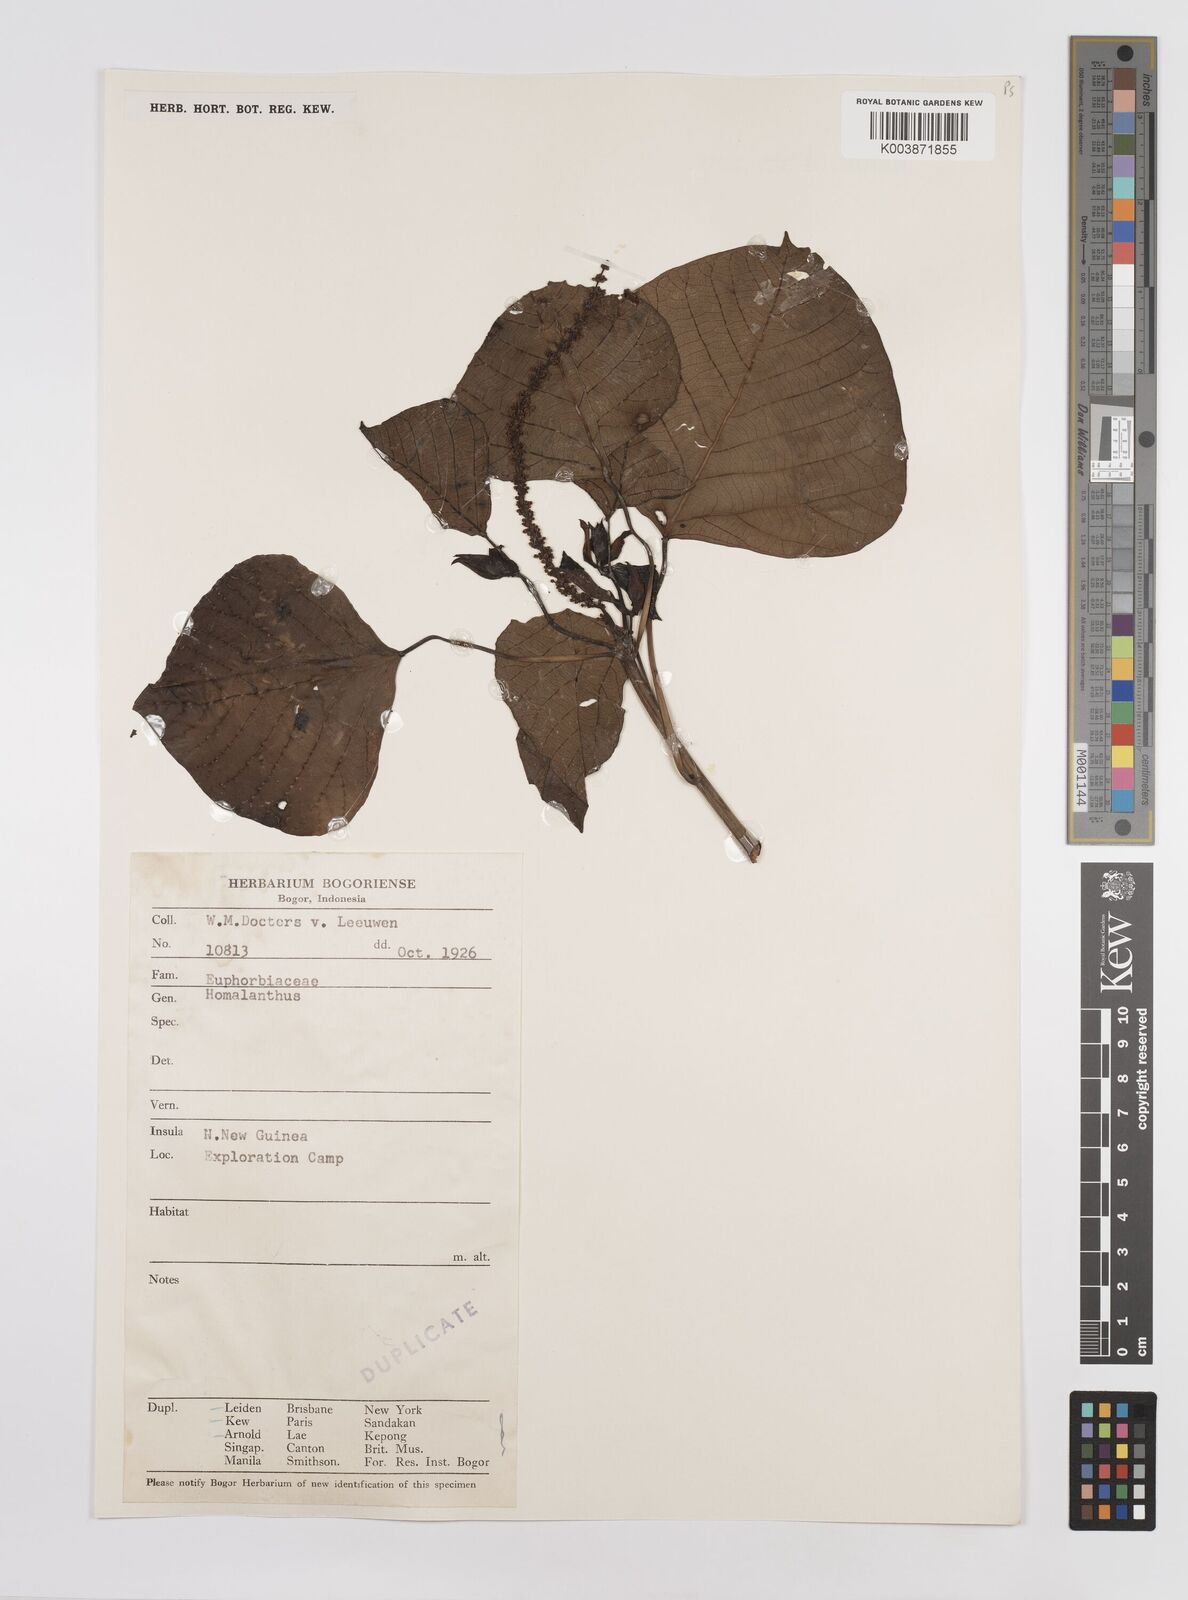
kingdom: Plantae
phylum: Tracheophyta
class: Magnoliopsida
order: Malpighiales
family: Euphorbiaceae
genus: Homalanthus
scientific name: Homalanthus novoguineensis
